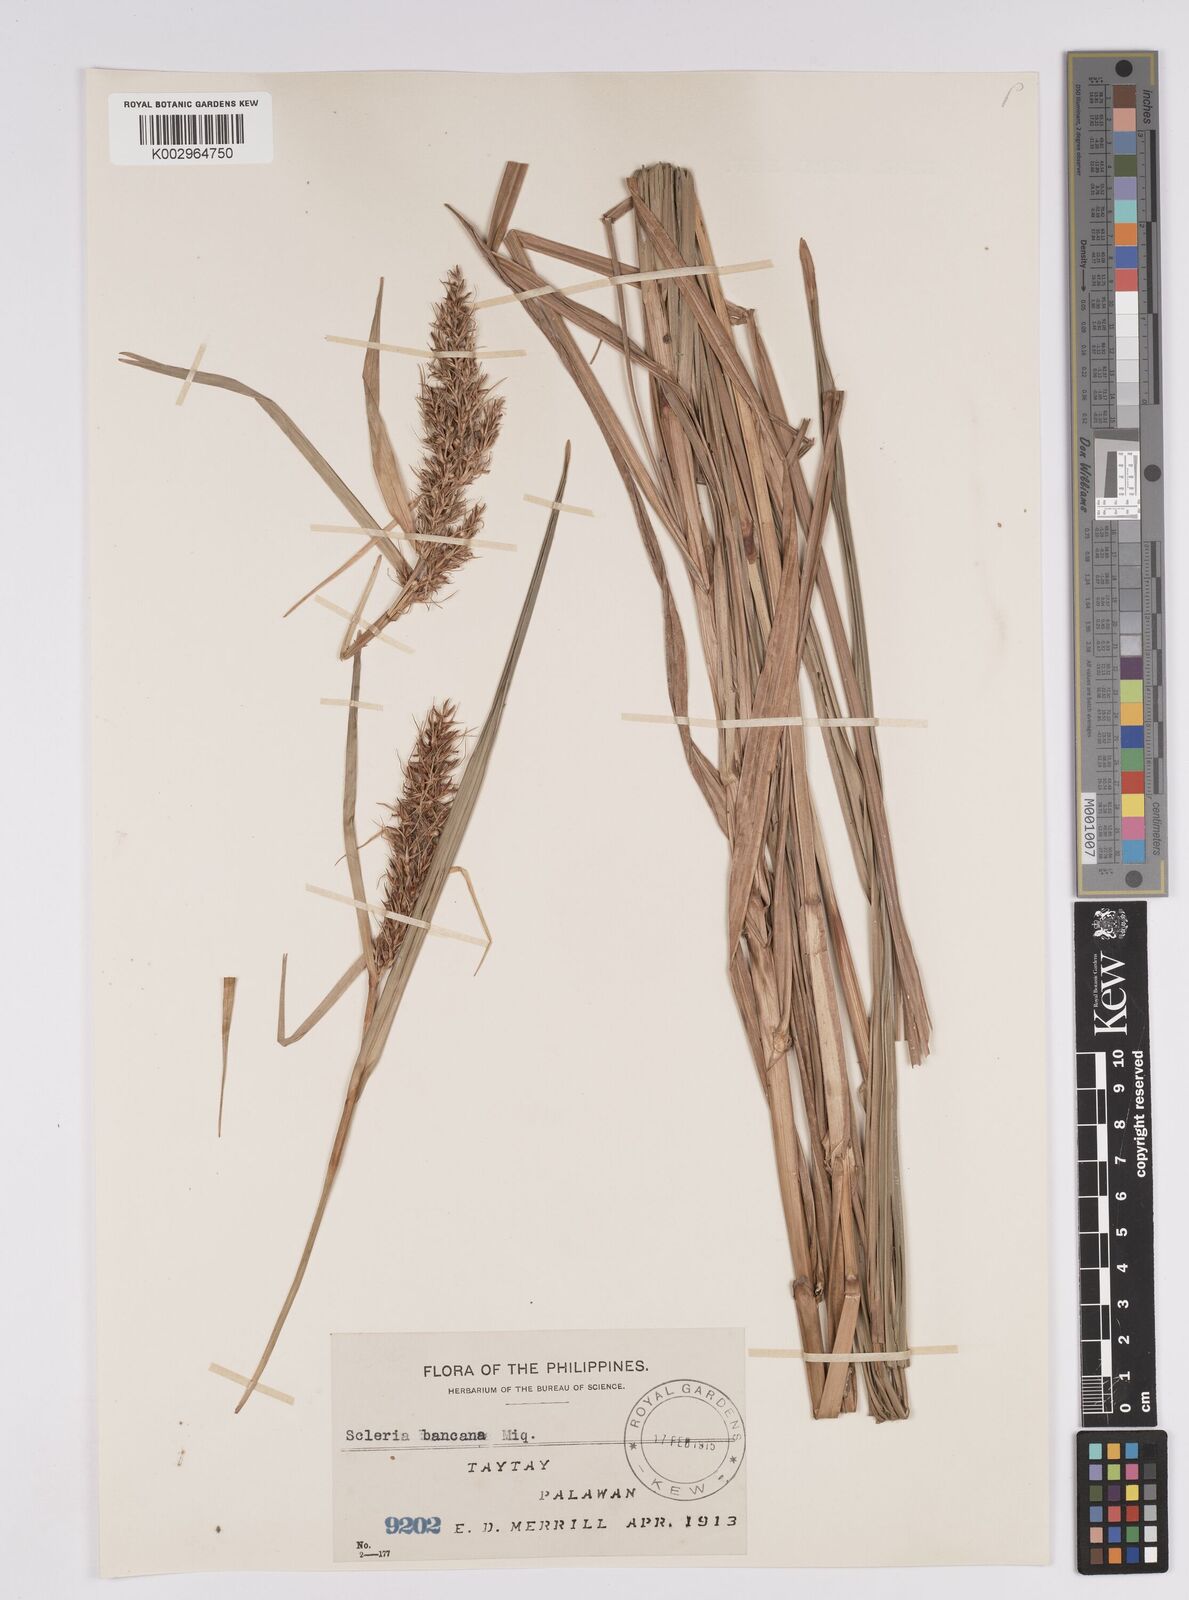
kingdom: Plantae
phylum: Tracheophyta
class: Liliopsida
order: Poales
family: Cyperaceae
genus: Scleria
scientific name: Scleria ciliaris
